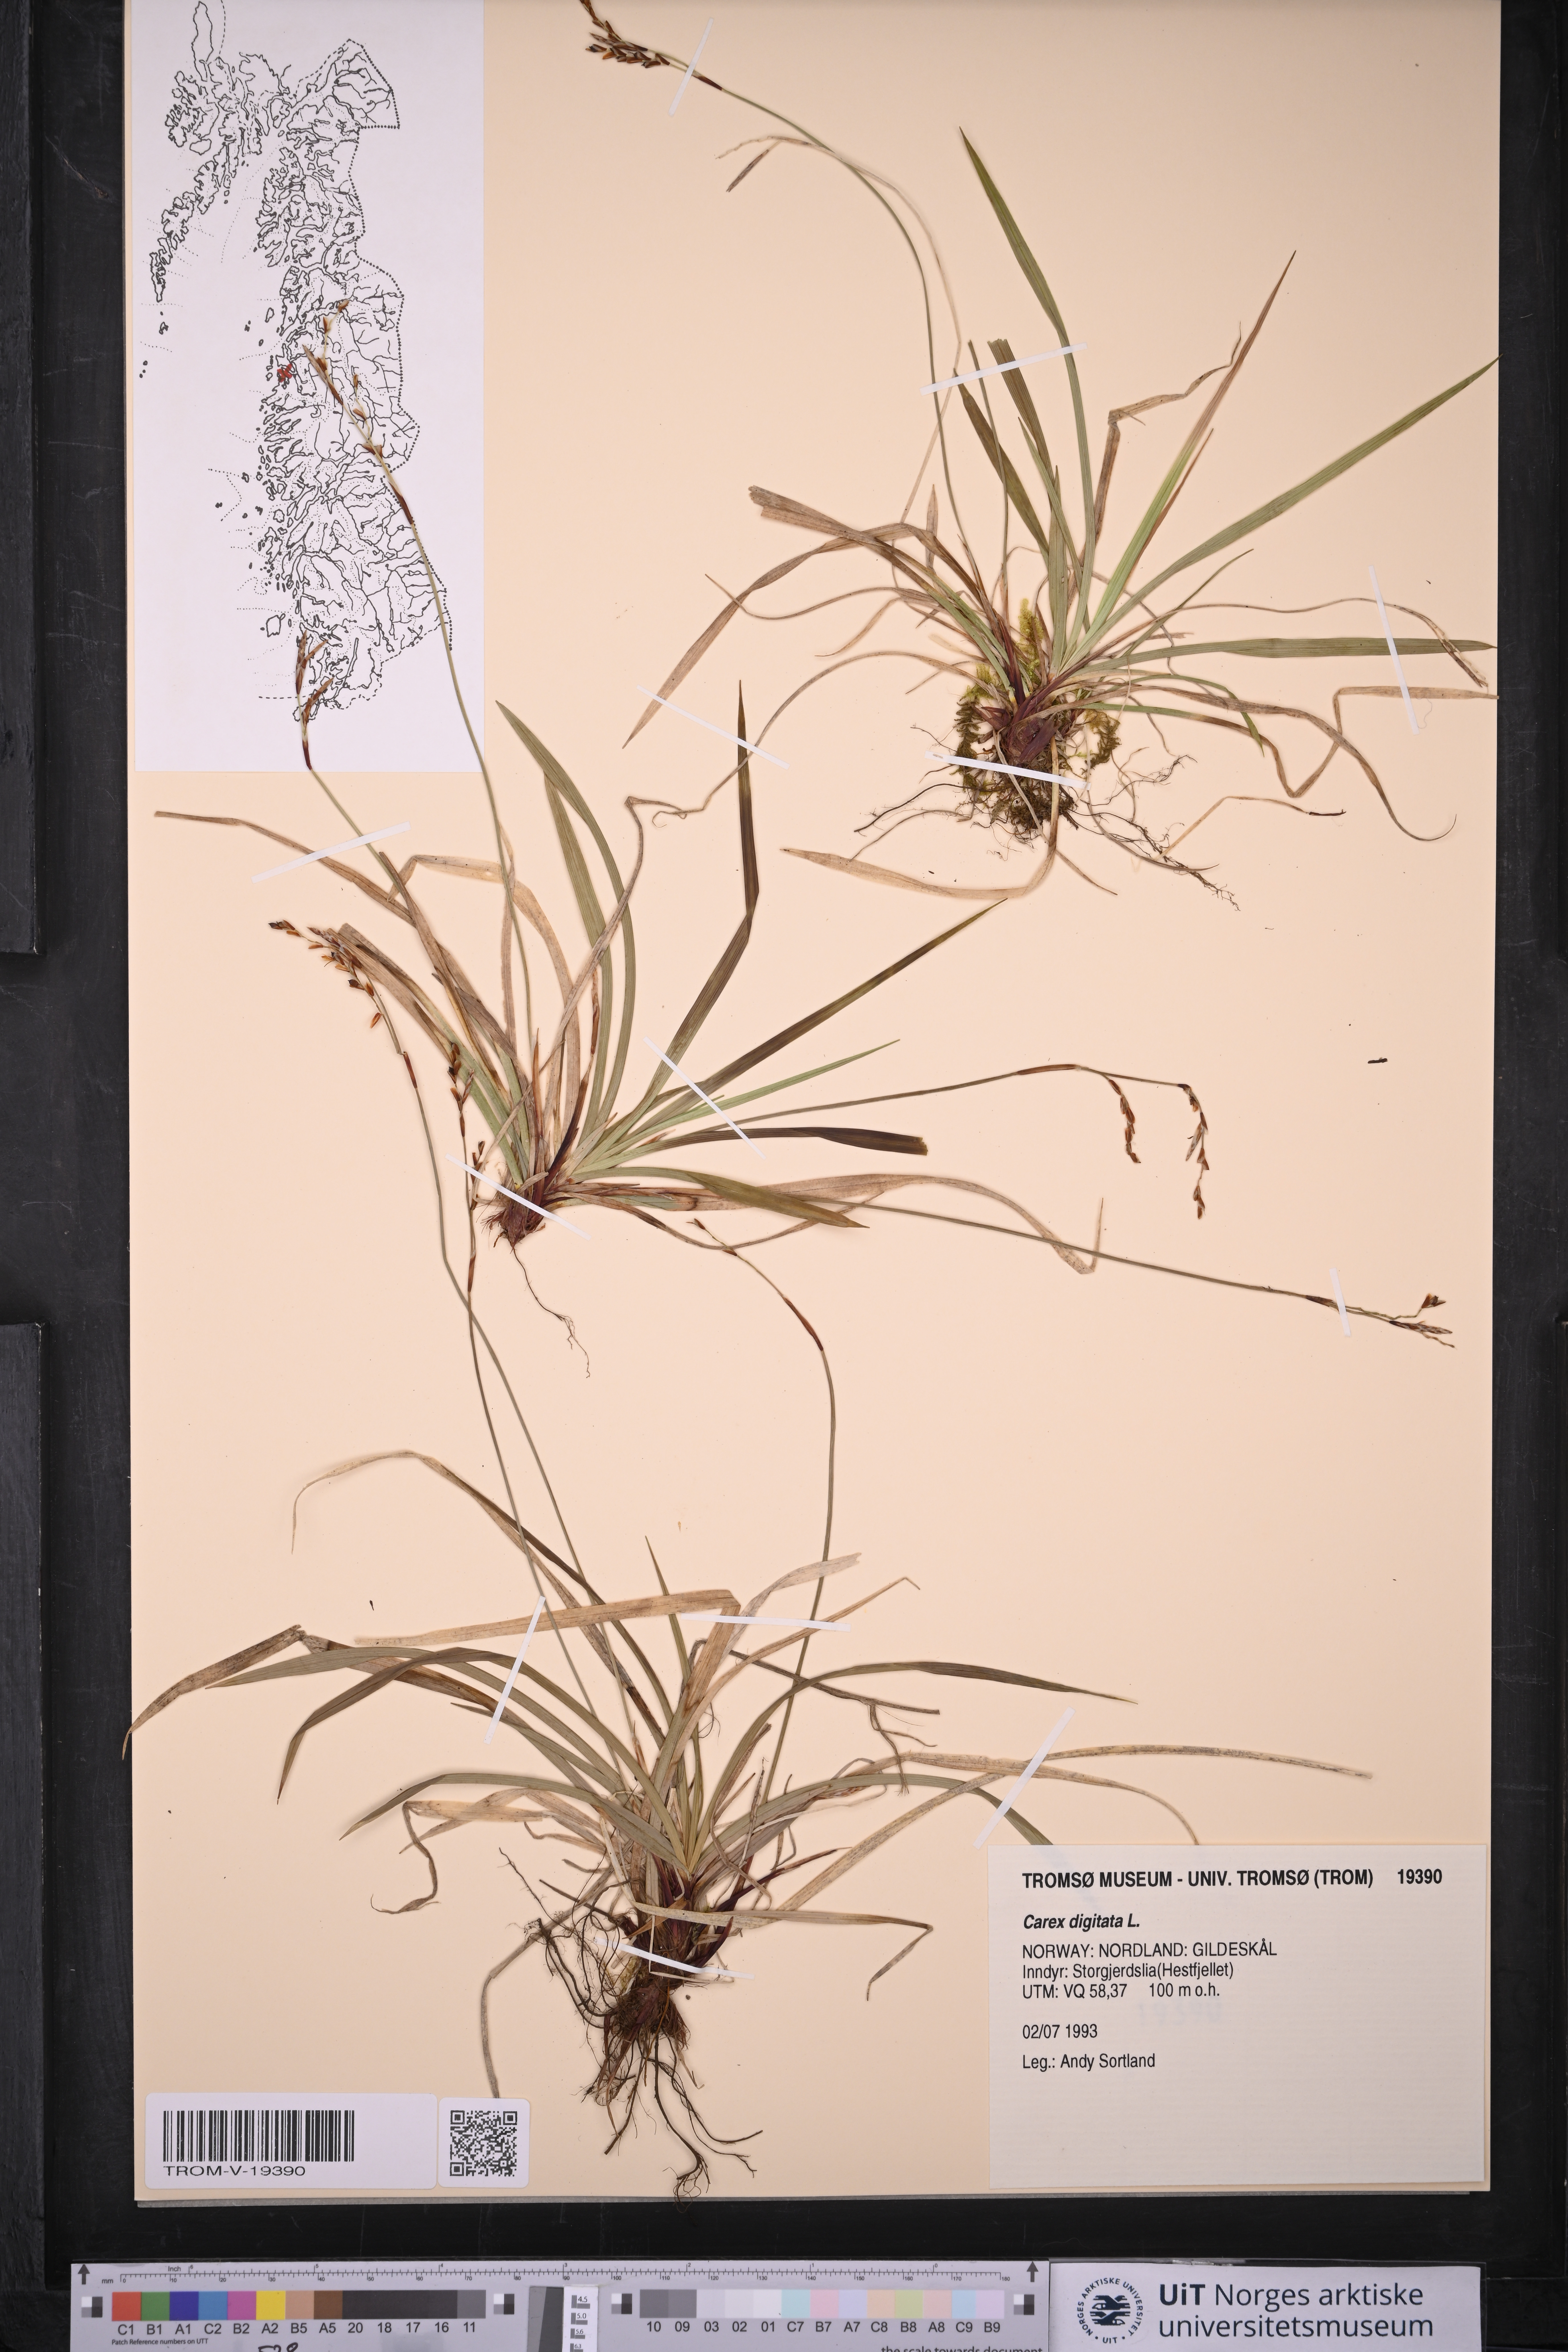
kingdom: Plantae
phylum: Tracheophyta
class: Liliopsida
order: Poales
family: Cyperaceae
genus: Carex
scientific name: Carex digitata
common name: Fingered sedge
